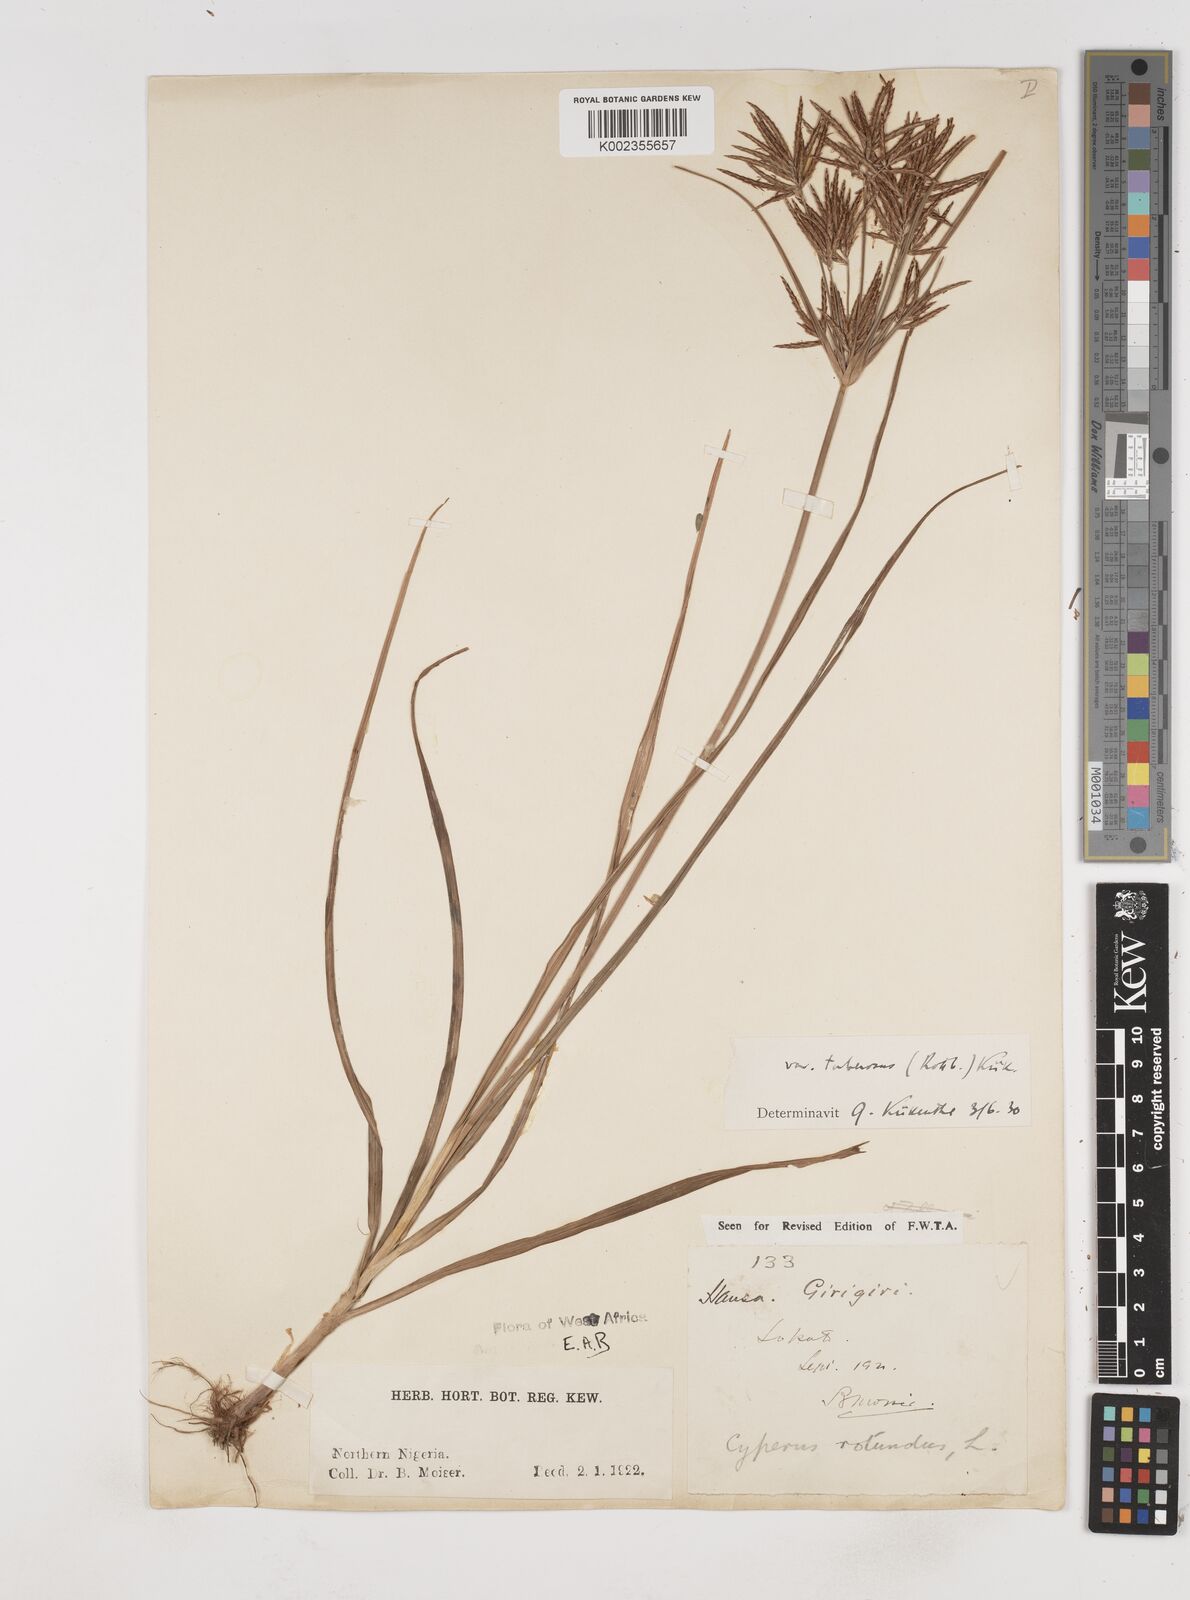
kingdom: Plantae
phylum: Tracheophyta
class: Liliopsida
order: Poales
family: Cyperaceae
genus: Cyperus
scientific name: Cyperus rotundus
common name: Nutgrass
